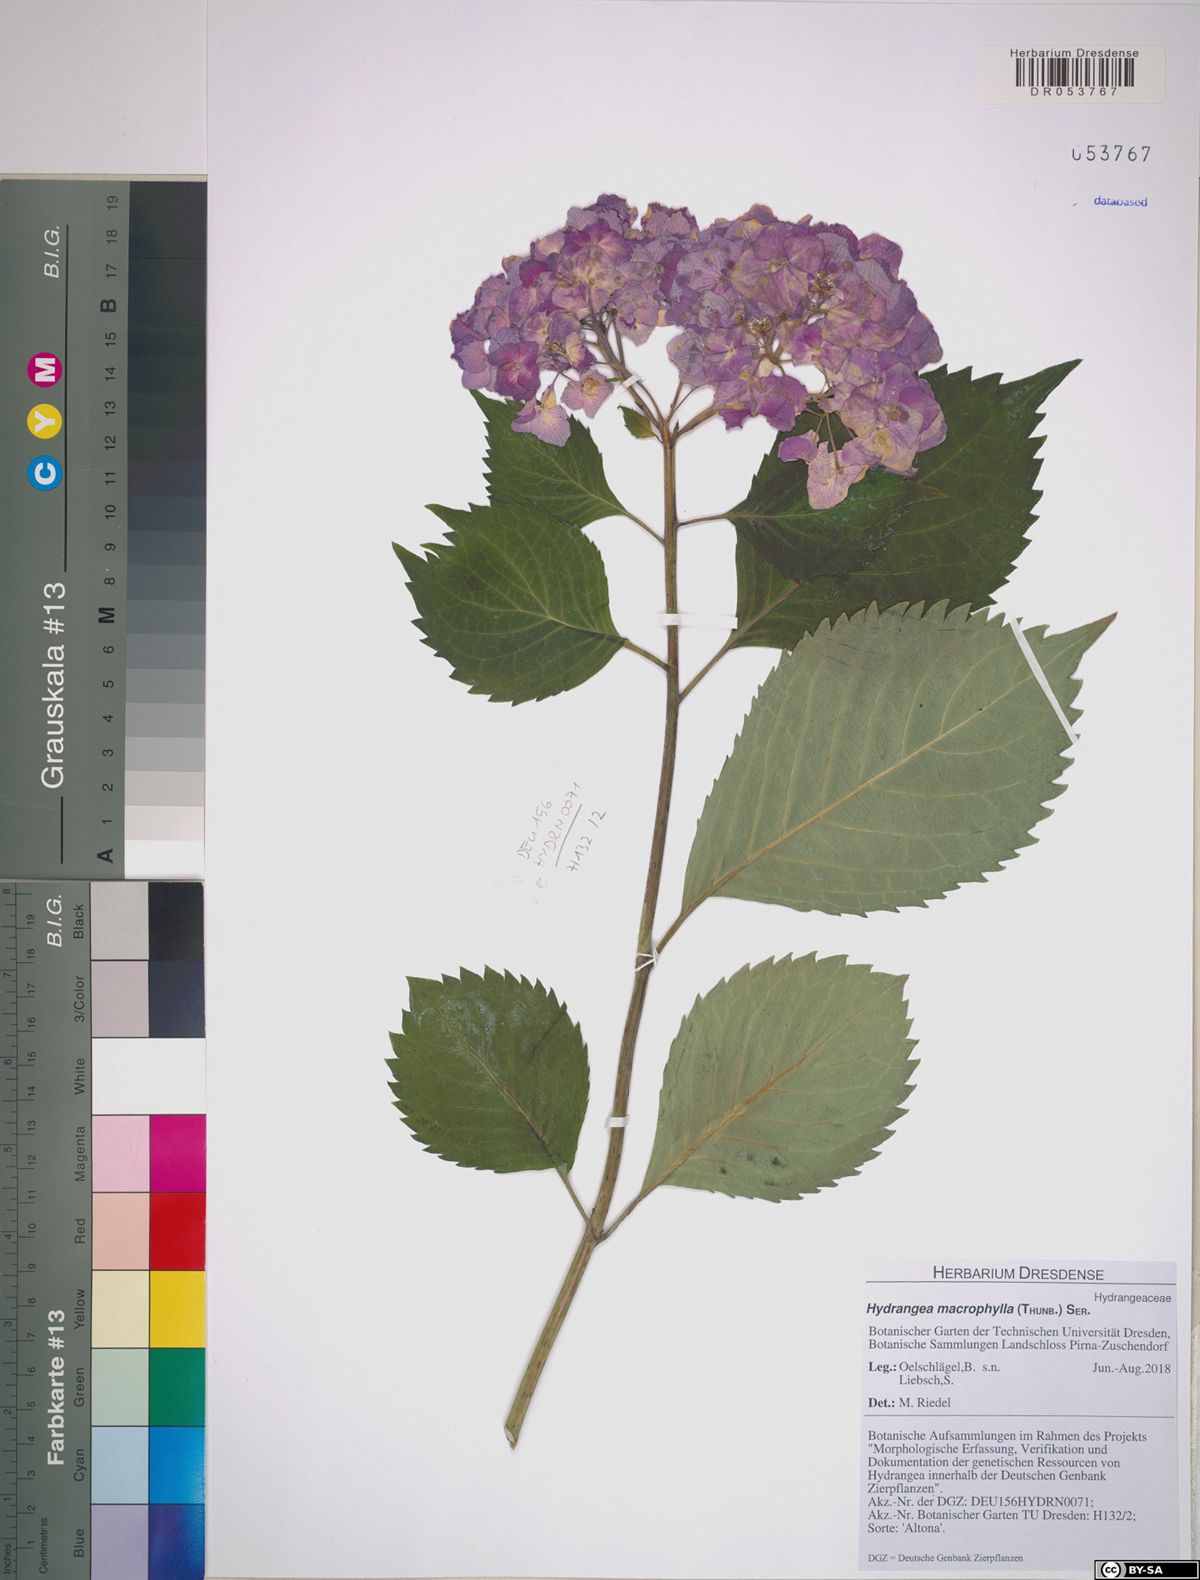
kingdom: Plantae
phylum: Tracheophyta
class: Magnoliopsida
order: Cornales
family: Hydrangeaceae
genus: Hydrangea
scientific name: Hydrangea macrophylla
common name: Hydrangea
